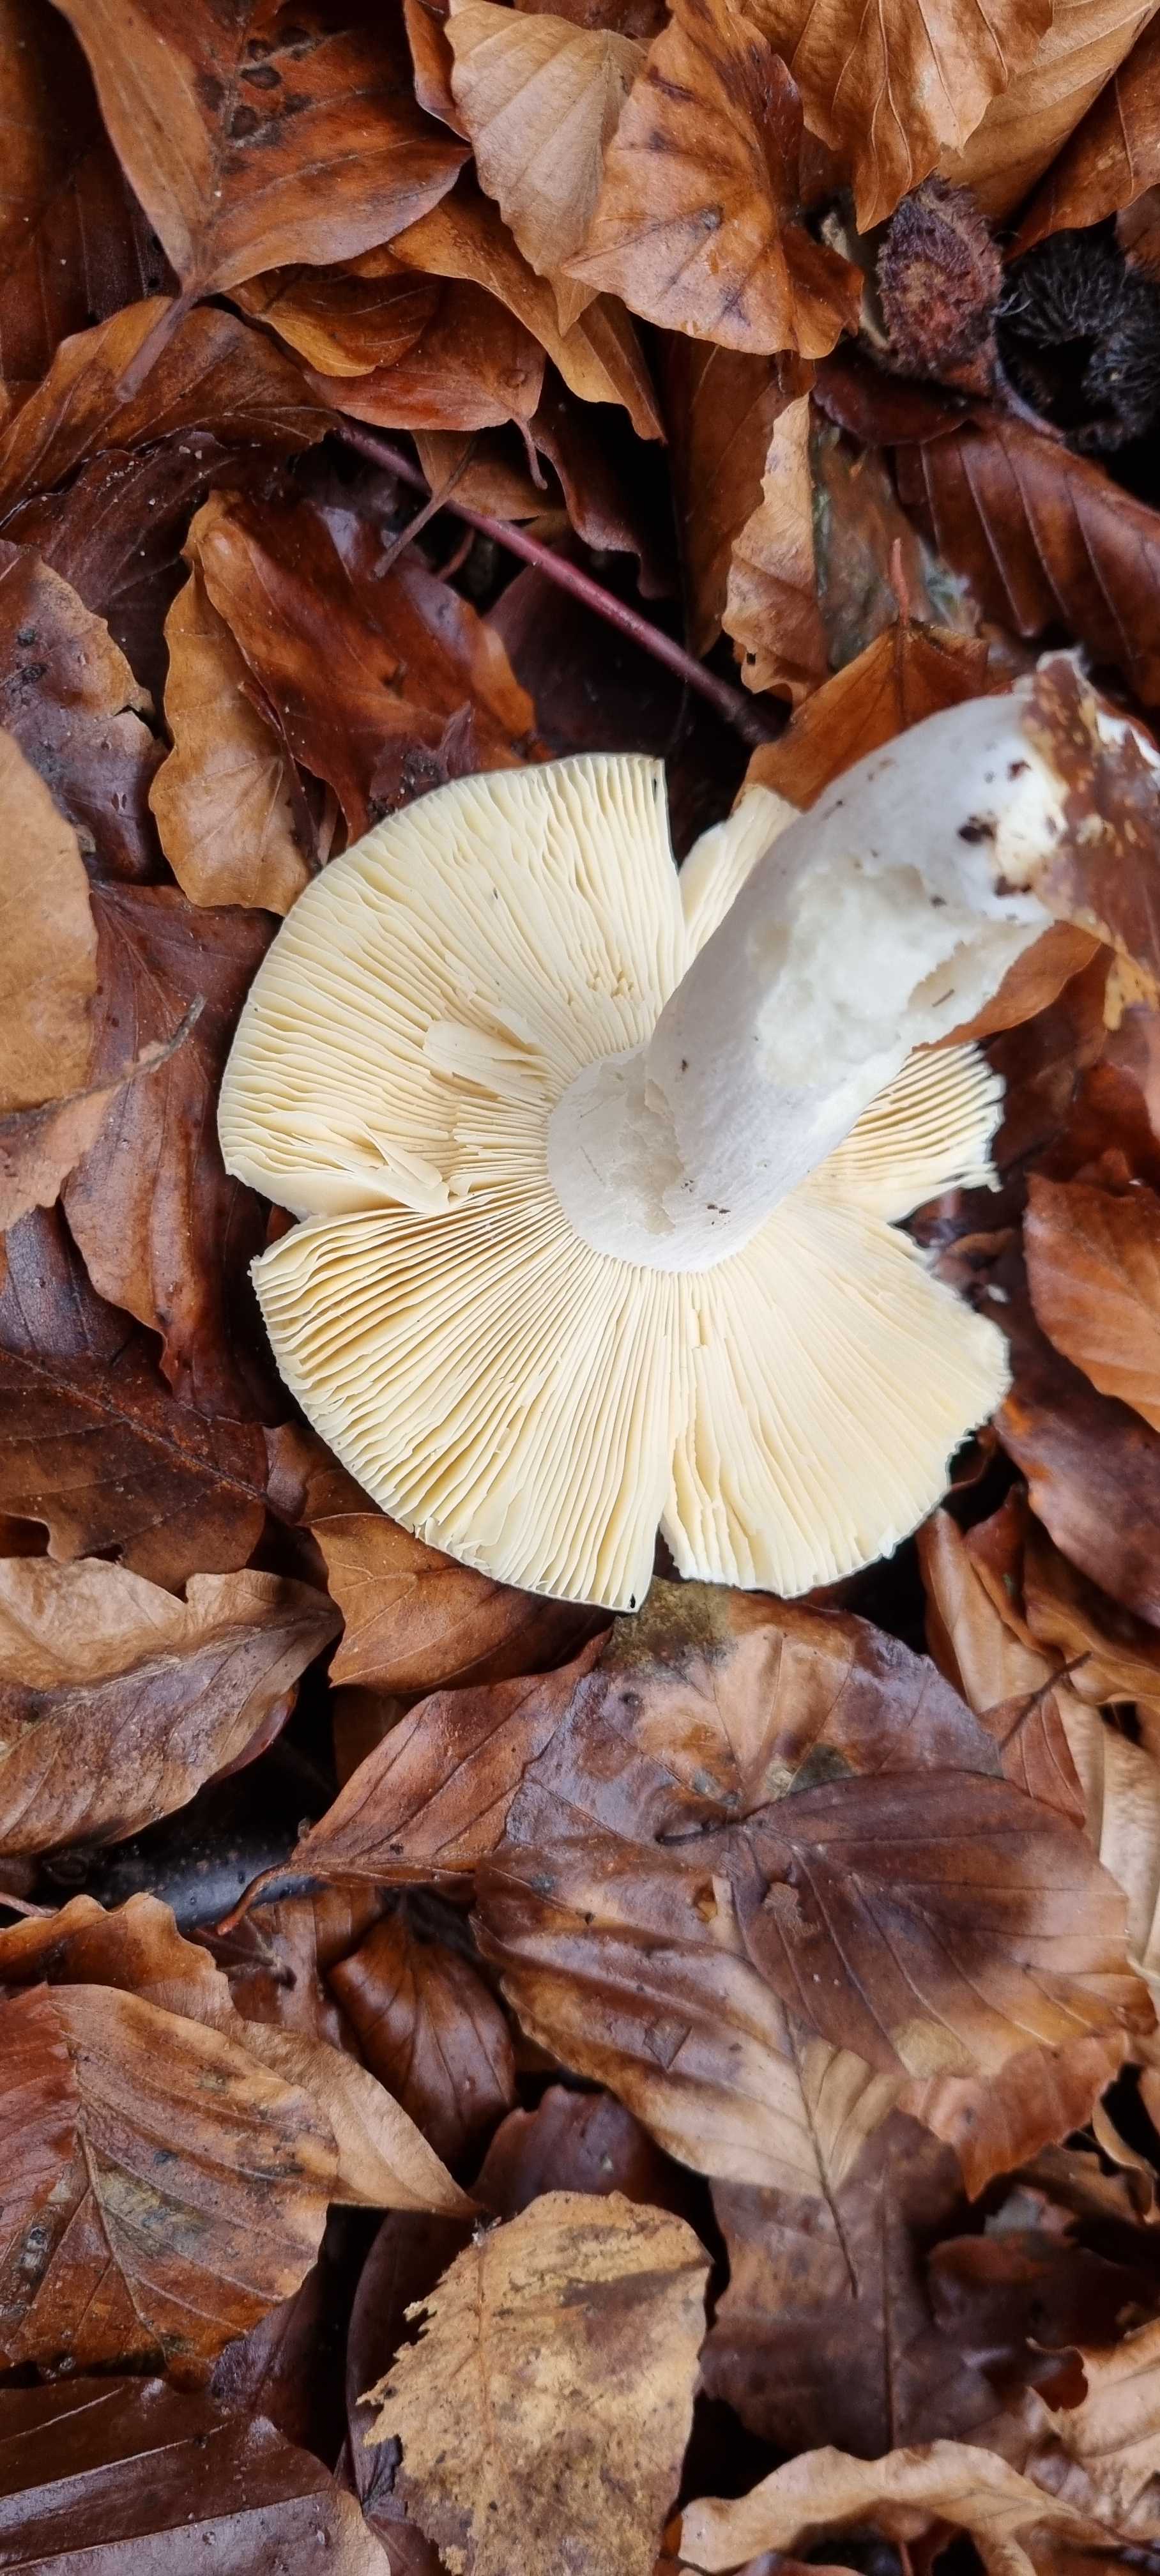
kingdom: Fungi
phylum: Basidiomycota
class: Agaricomycetes
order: Russulales
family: Russulaceae
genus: Russula
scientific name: Russula
